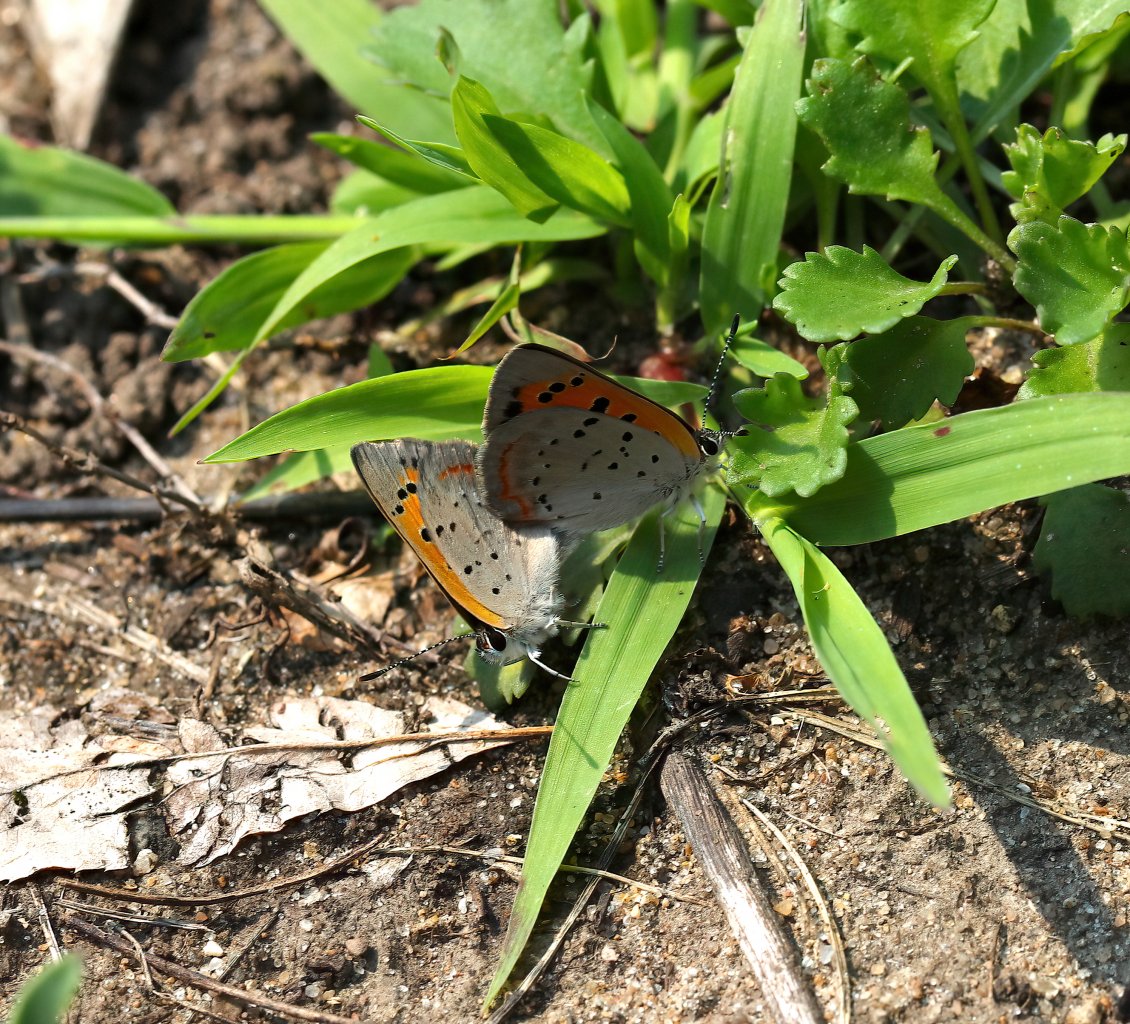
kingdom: Animalia
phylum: Arthropoda
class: Insecta
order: Lepidoptera
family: Lycaenidae
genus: Lycaena
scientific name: Lycaena phlaeas
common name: American Copper
